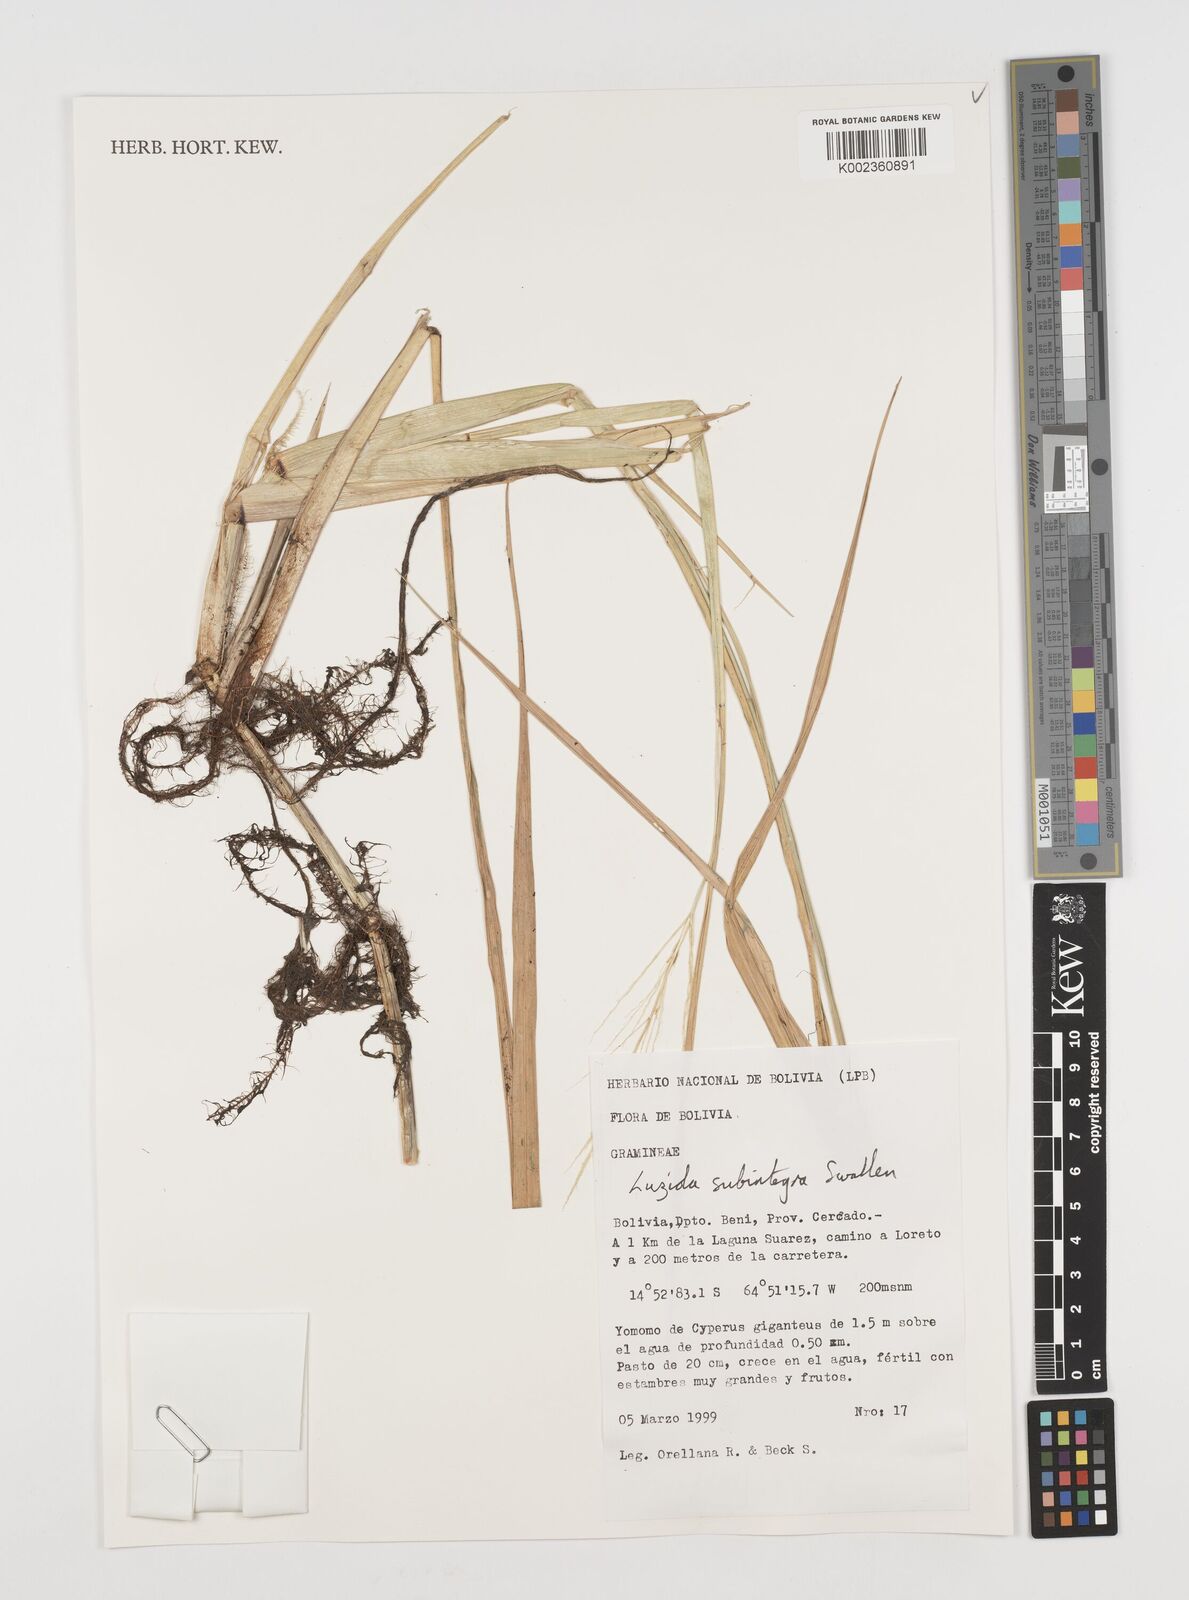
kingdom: Plantae
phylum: Tracheophyta
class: Liliopsida
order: Poales
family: Poaceae
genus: Luziola
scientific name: Luziola subintegra
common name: Large watergrass
